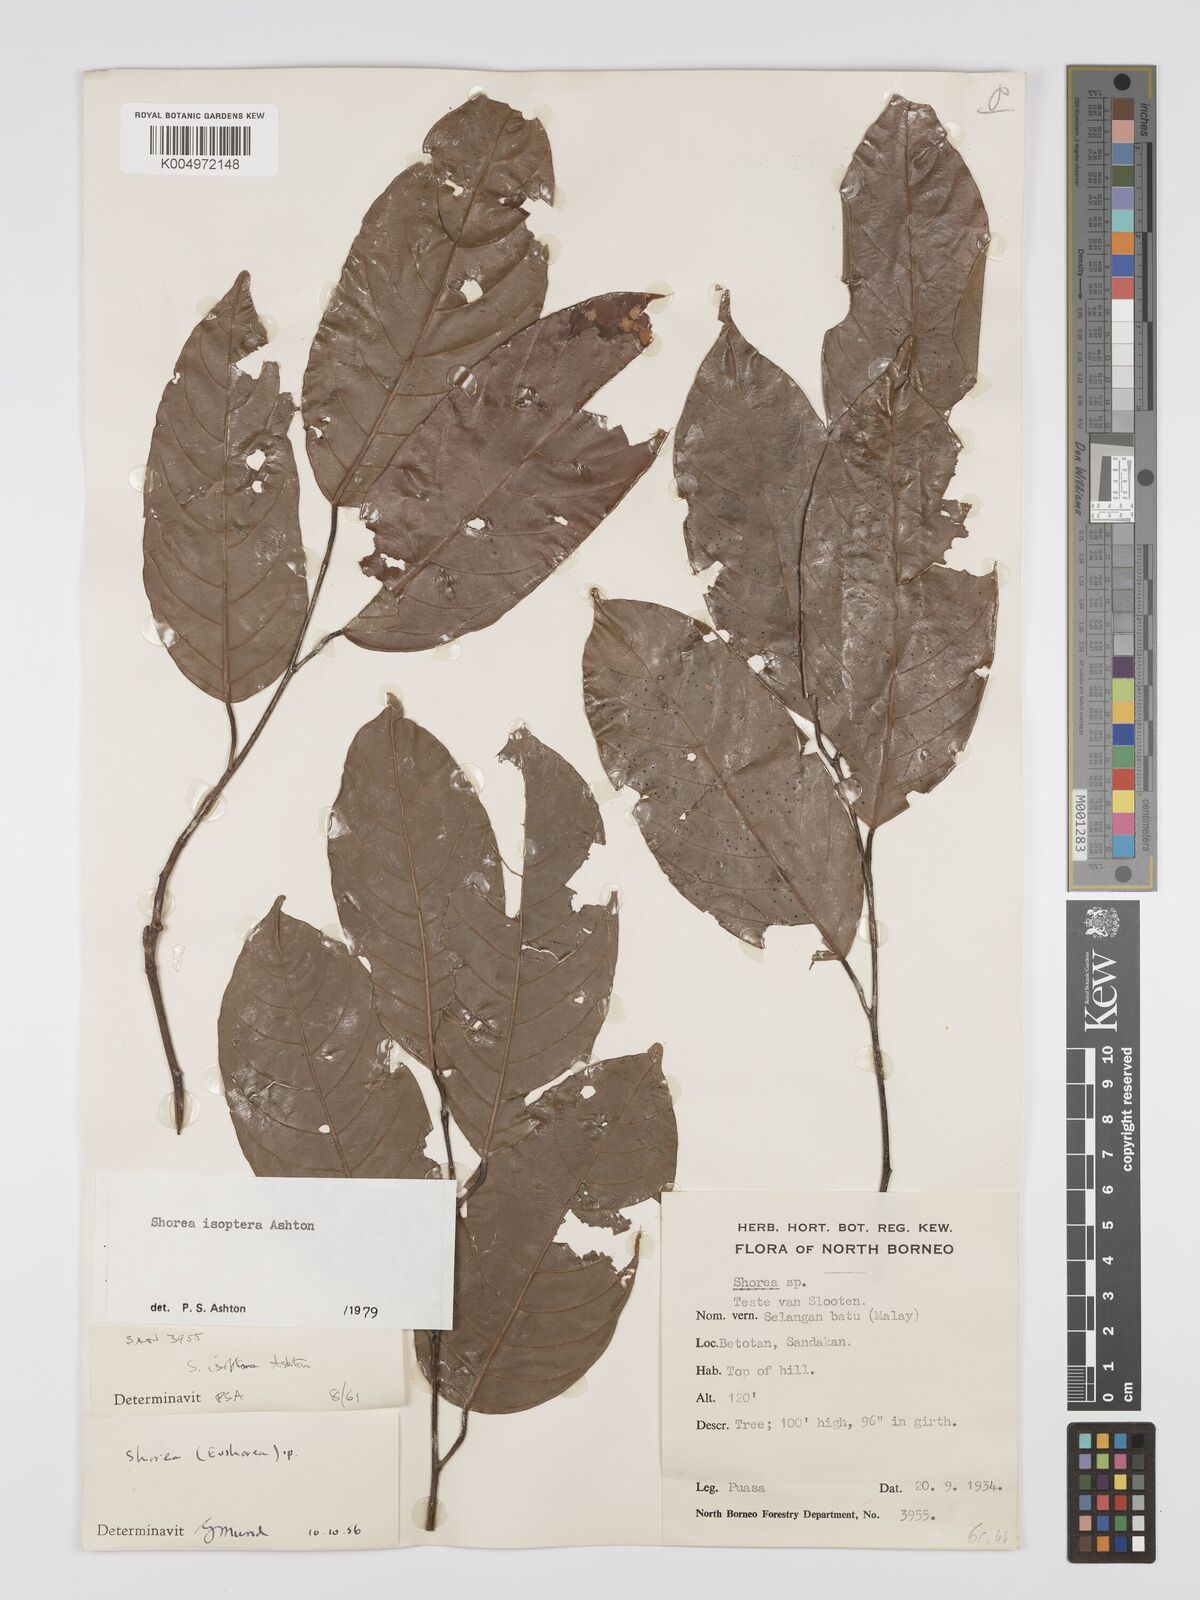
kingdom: Plantae
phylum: Tracheophyta
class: Magnoliopsida
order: Malvales
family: Dipterocarpaceae
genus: Neohopea
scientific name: Neohopea isoptera
